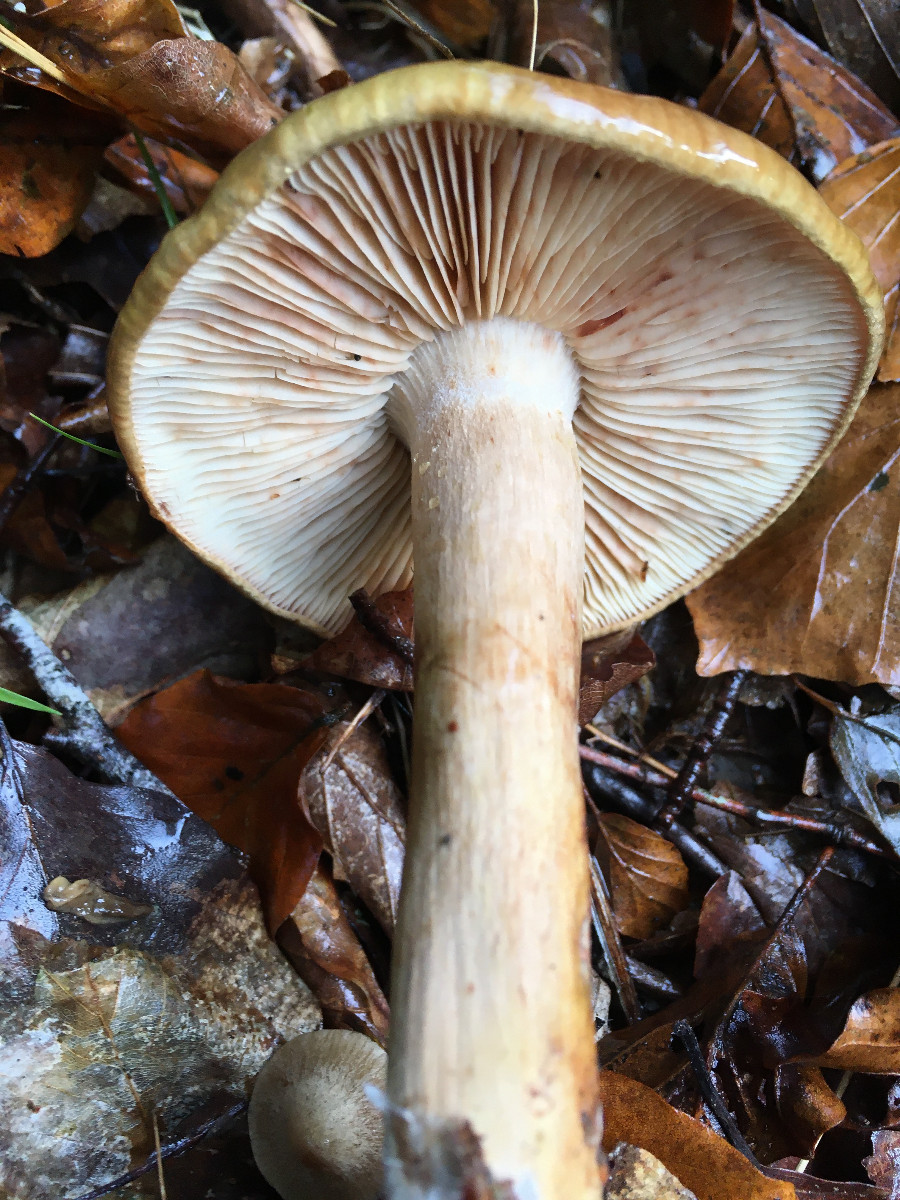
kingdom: Fungi
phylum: Basidiomycota
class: Agaricomycetes
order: Agaricales
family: Tricholomataceae
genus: Tricholoma
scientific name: Tricholoma ustale
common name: sveden ridderhat
